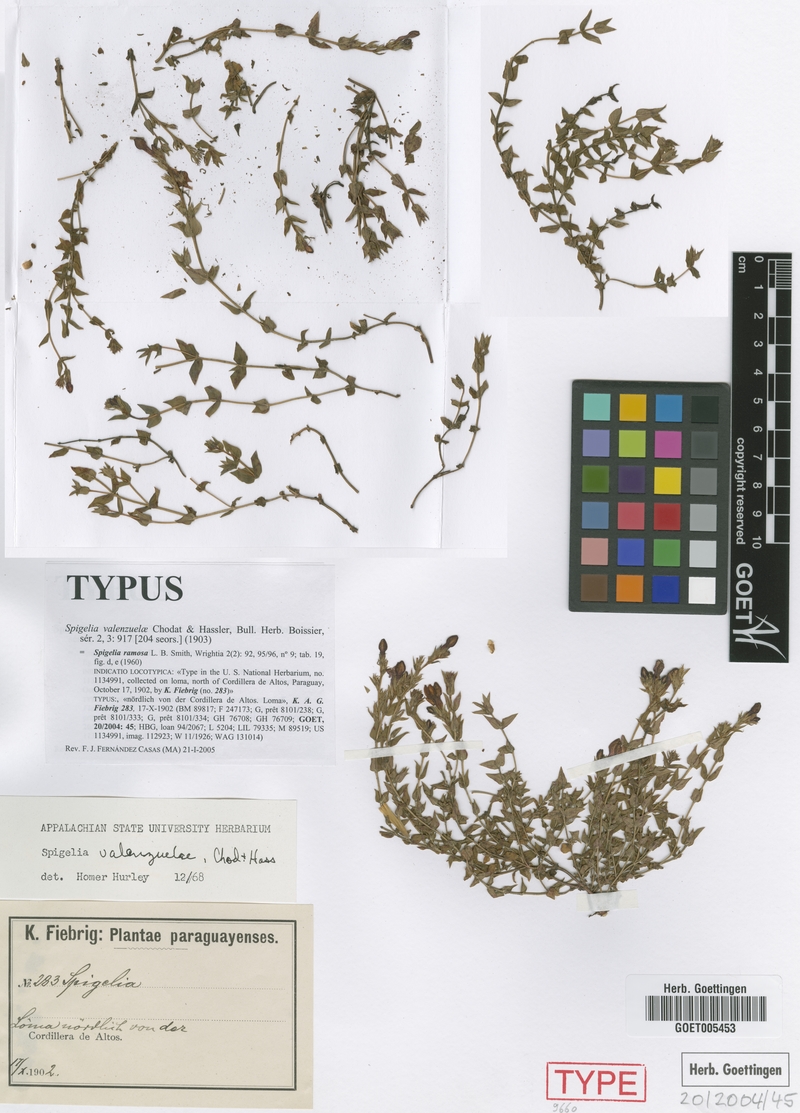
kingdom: Plantae
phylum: Tracheophyta
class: Magnoliopsida
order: Gentianales
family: Loganiaceae
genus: Spigelia
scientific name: Spigelia valenzuelae
